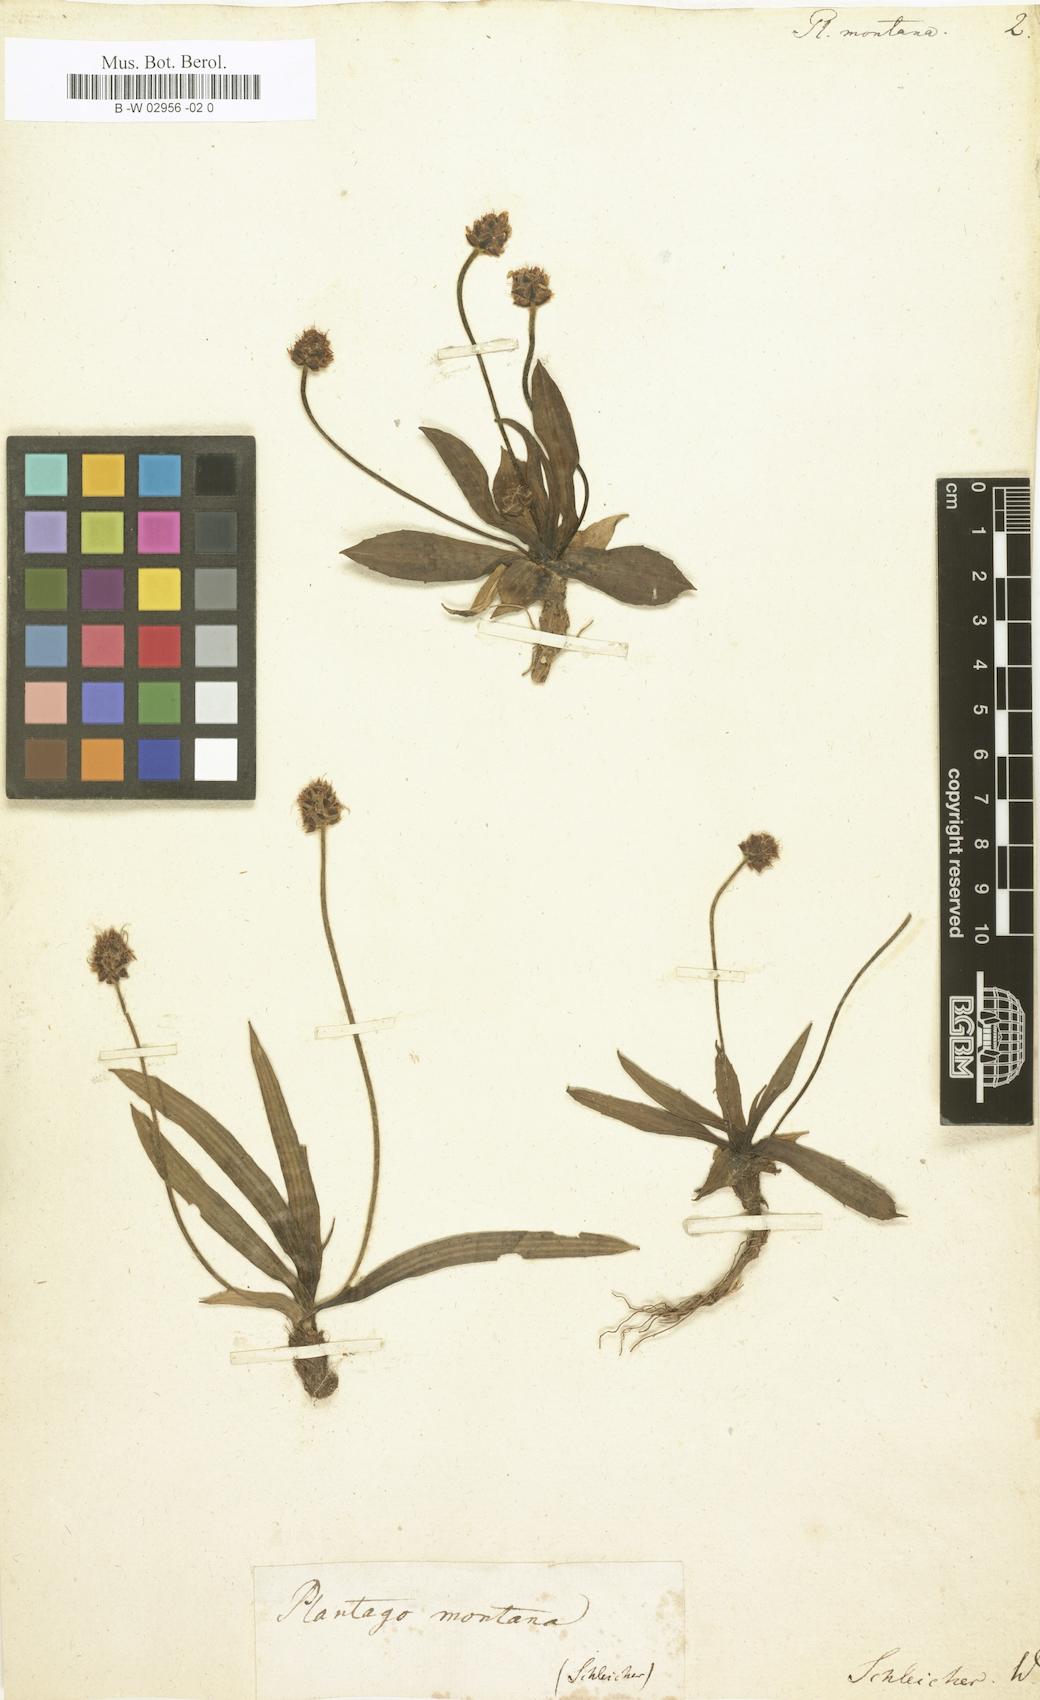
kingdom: Plantae
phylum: Tracheophyta
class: Magnoliopsida
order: Lamiales
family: Plantaginaceae
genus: Plantago
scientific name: Plantago
